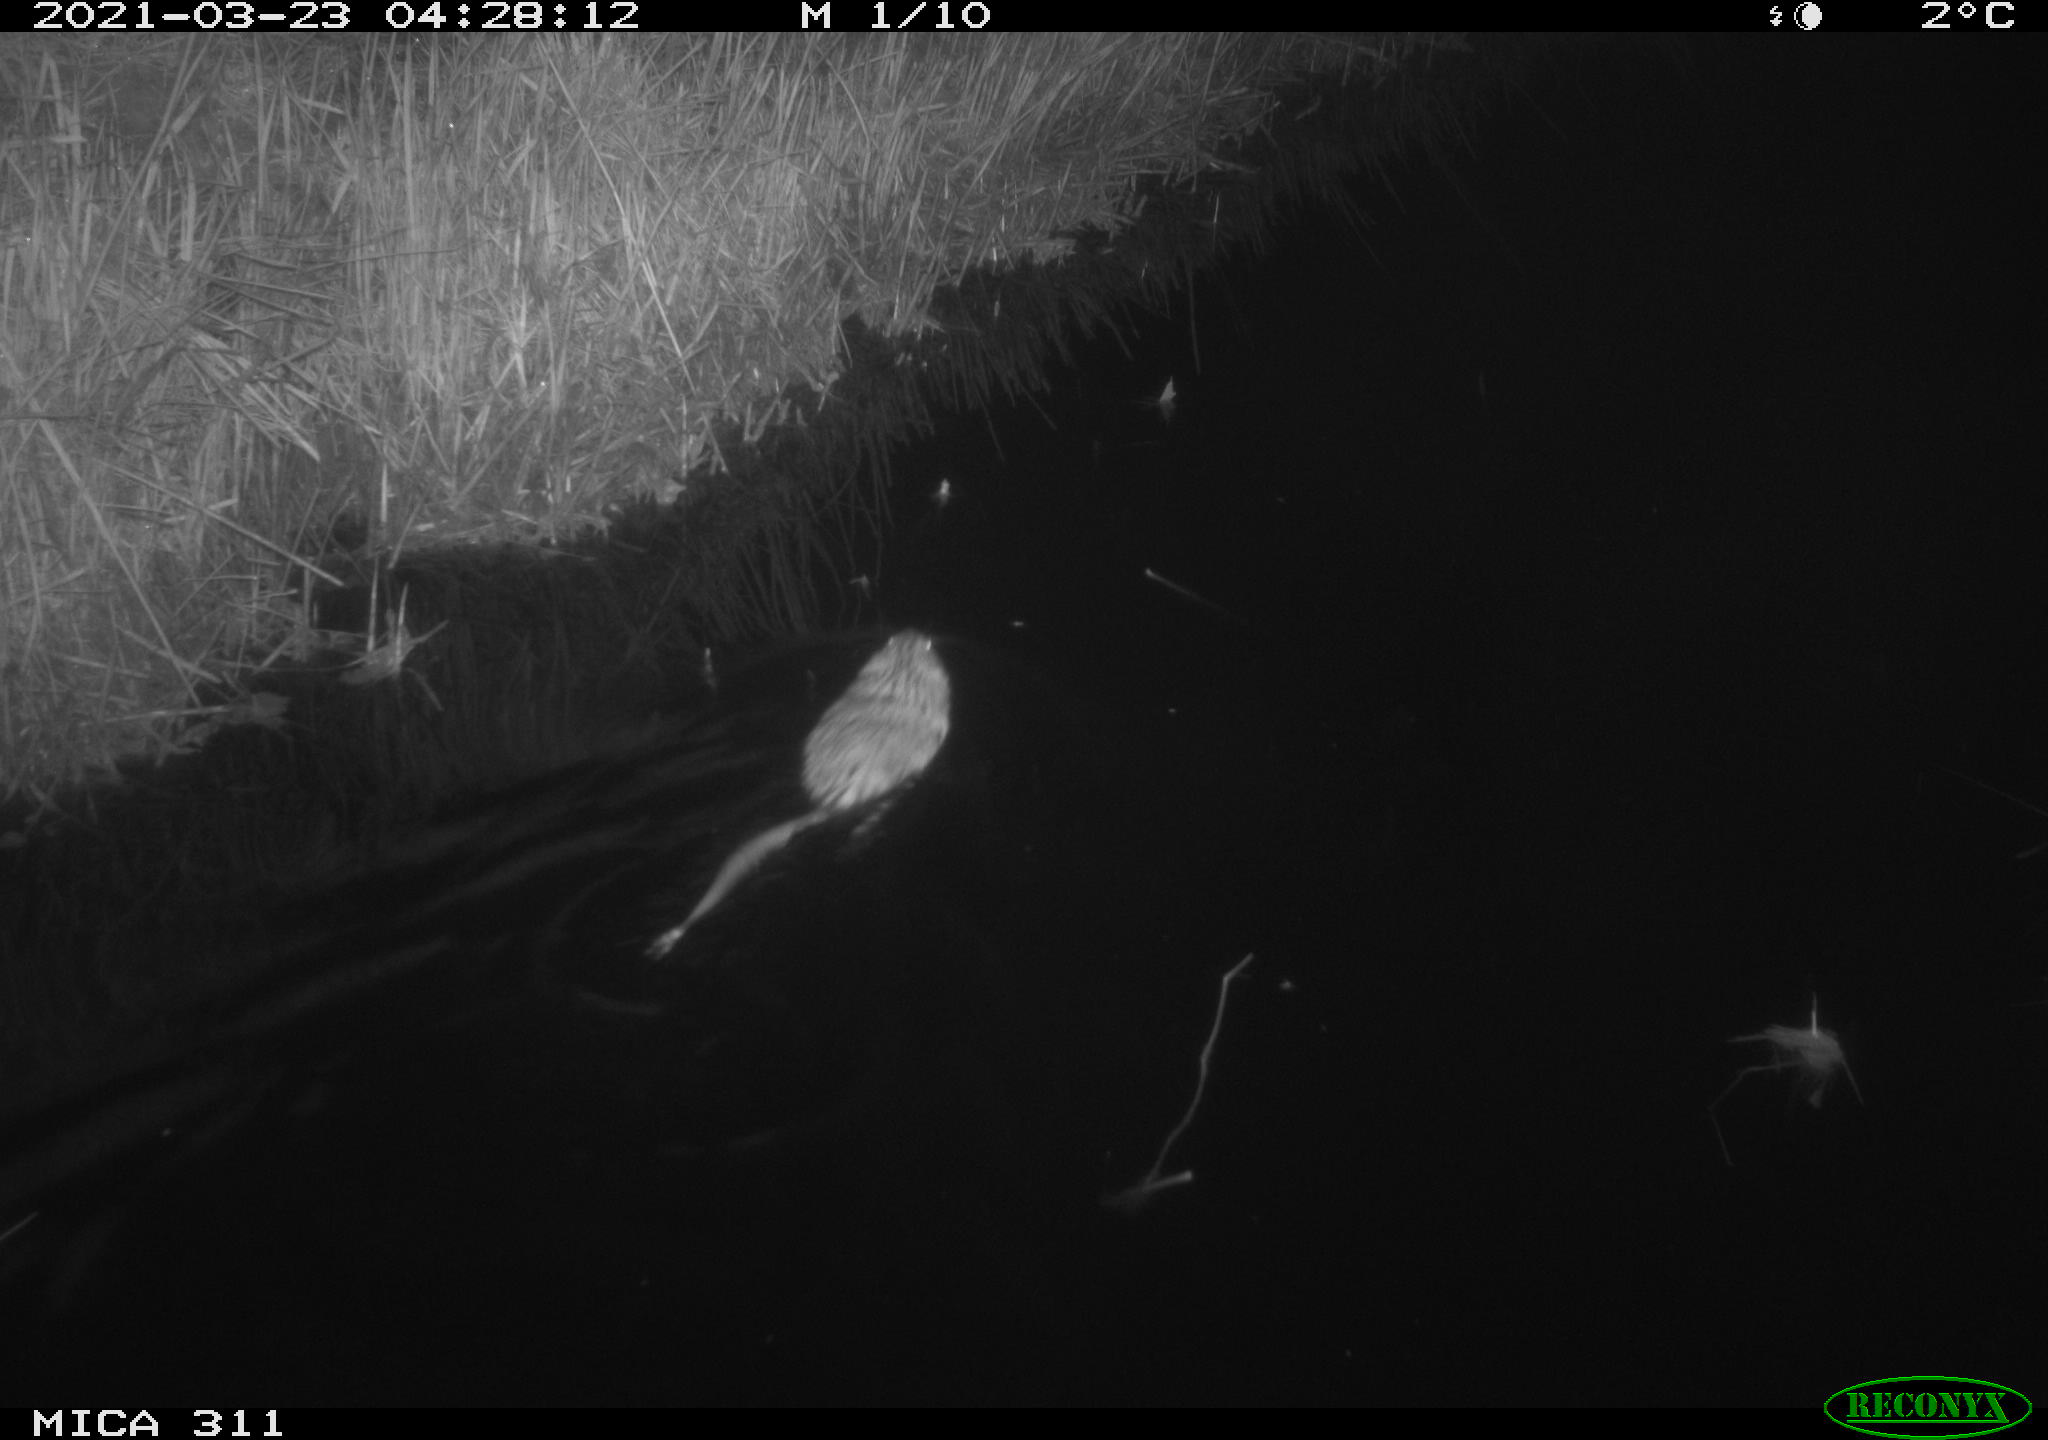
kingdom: Animalia
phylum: Chordata
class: Mammalia
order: Rodentia
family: Cricetidae
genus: Ondatra
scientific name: Ondatra zibethicus
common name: Muskrat
